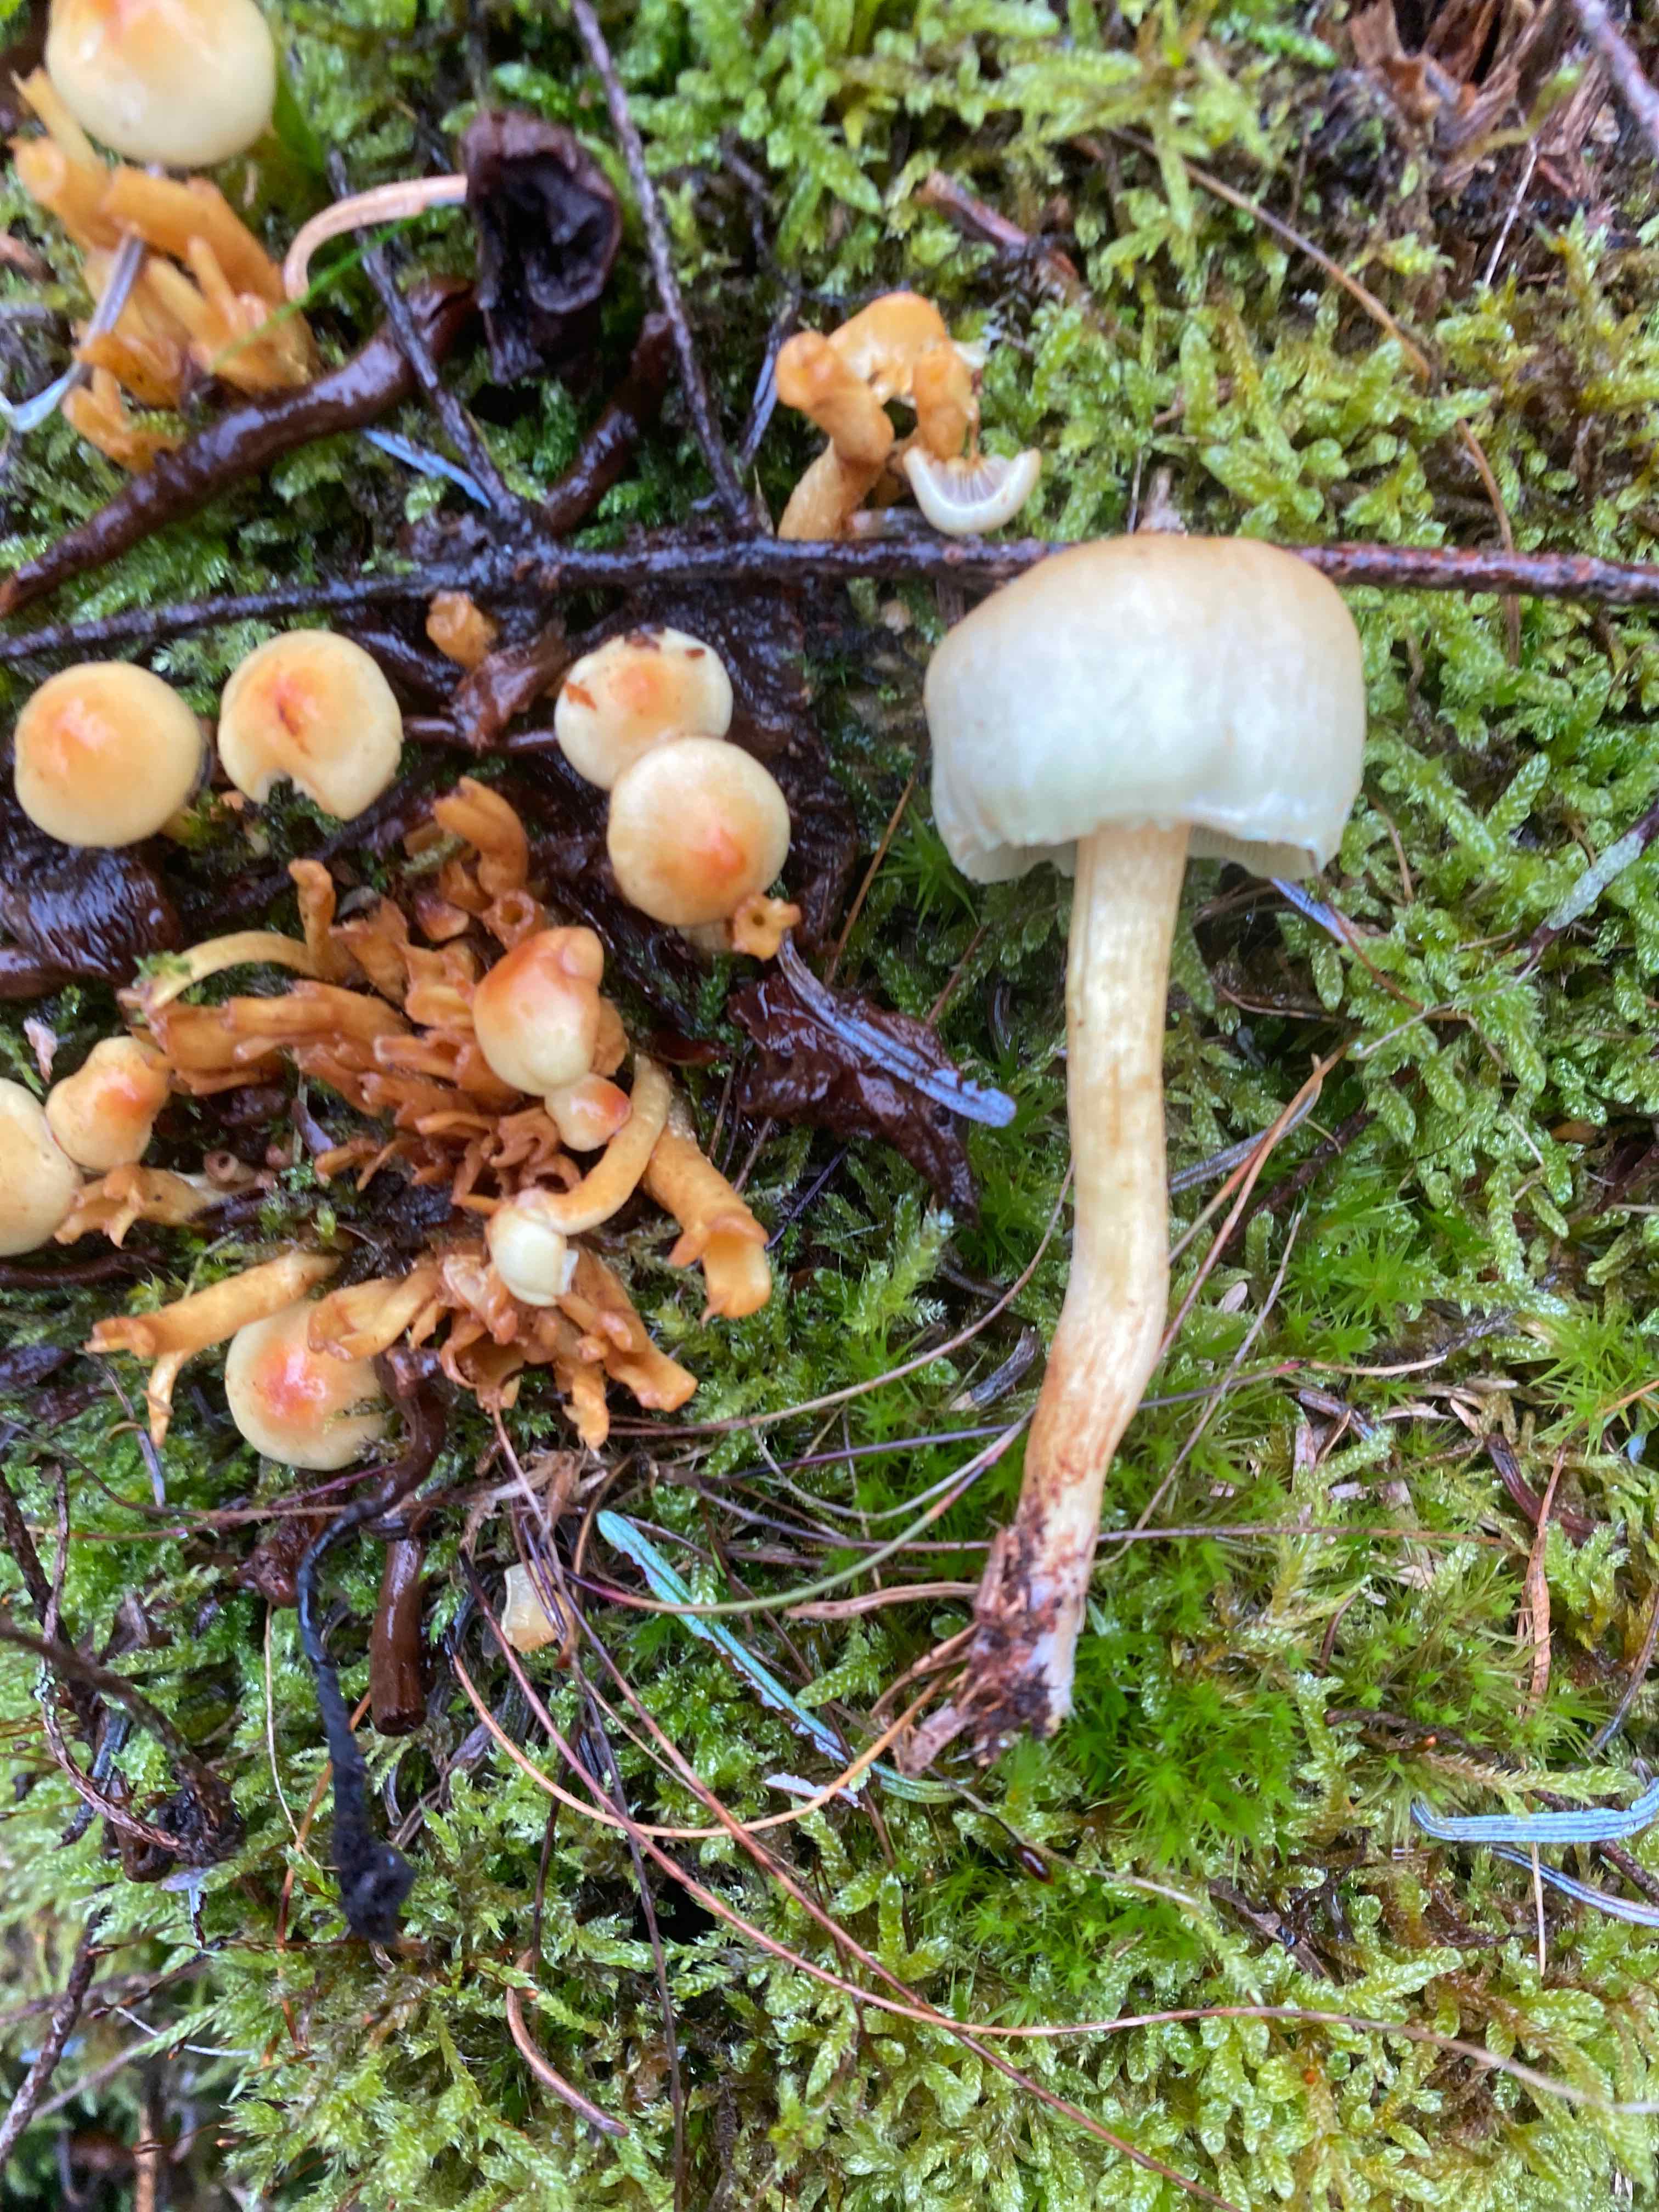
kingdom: Fungi
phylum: Basidiomycota
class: Agaricomycetes
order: Agaricales
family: Strophariaceae
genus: Hypholoma
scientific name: Hypholoma capnoides
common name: gran-svovlhat
